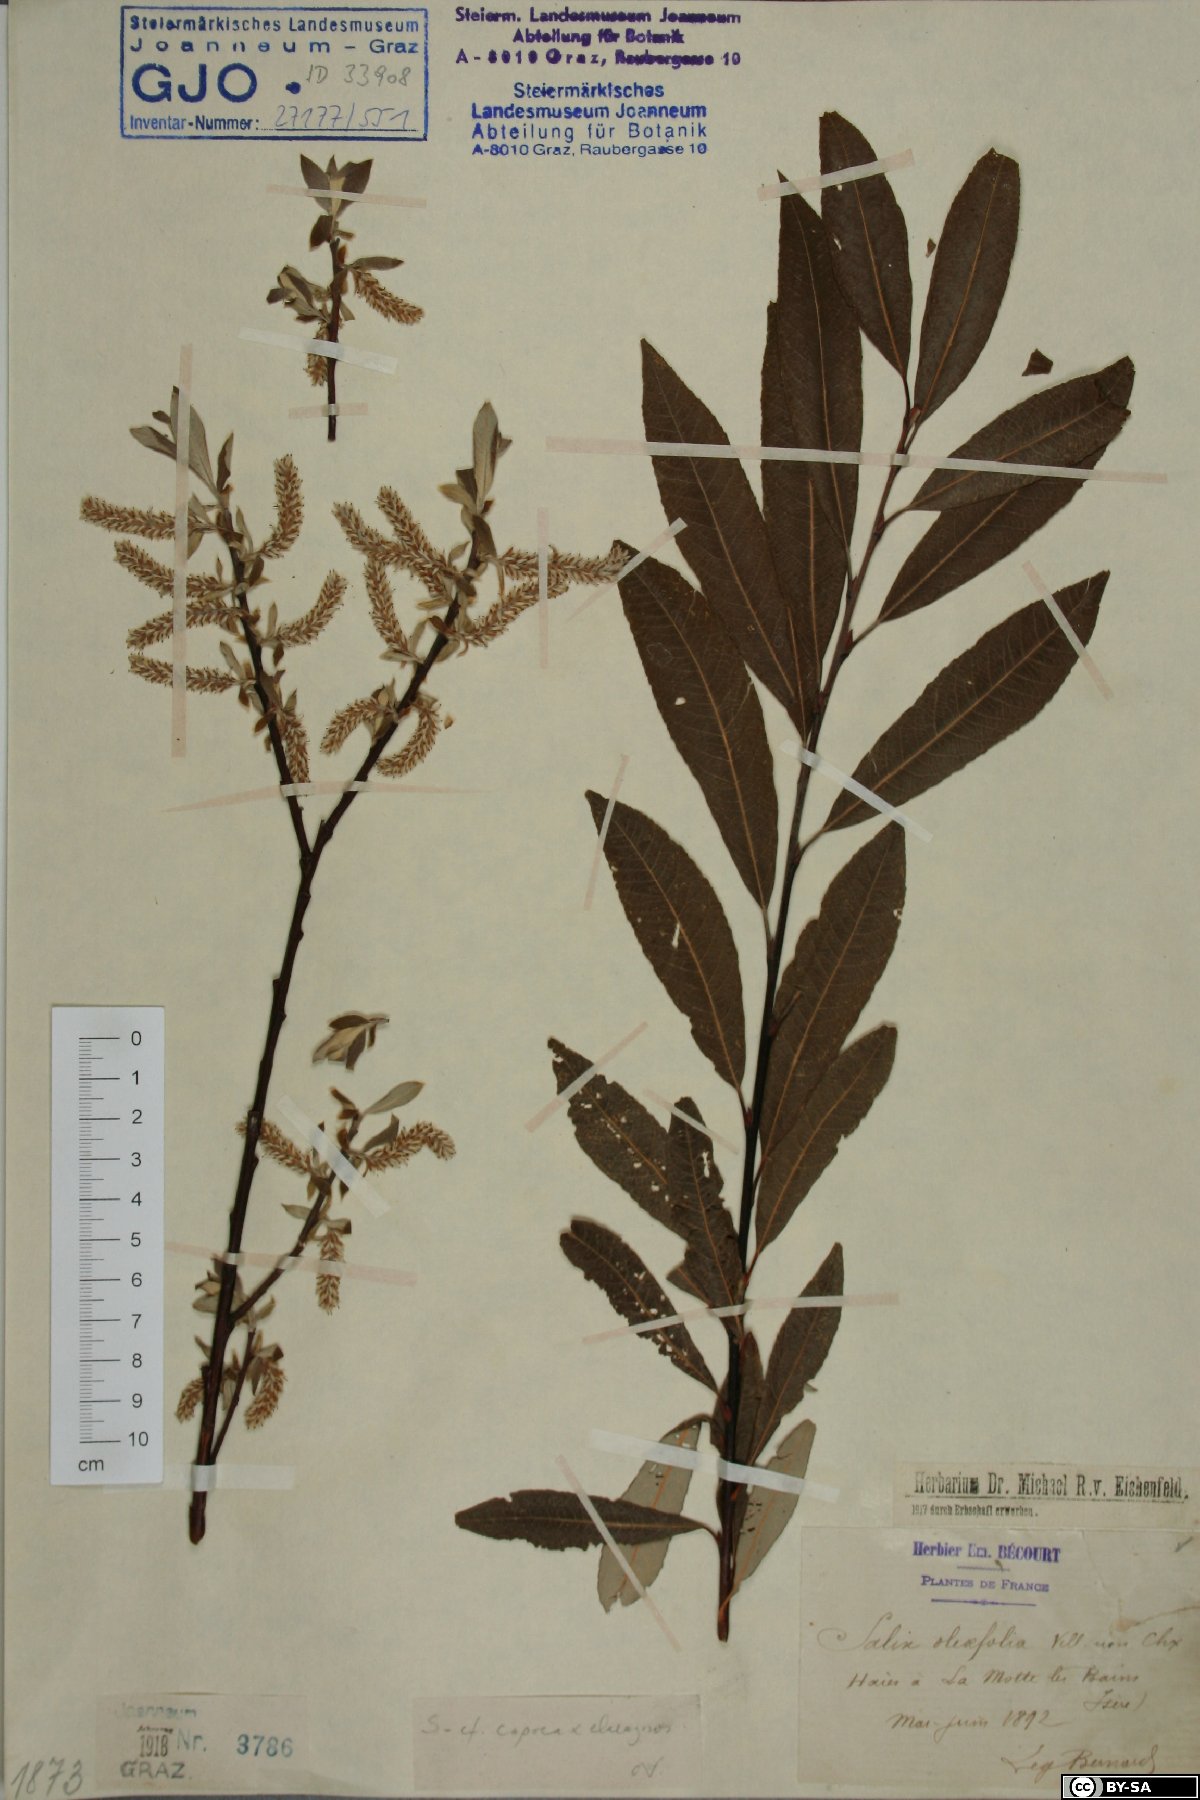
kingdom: Plantae
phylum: Tracheophyta
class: Magnoliopsida
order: Malpighiales
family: Salicaceae
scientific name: Salicaceae
